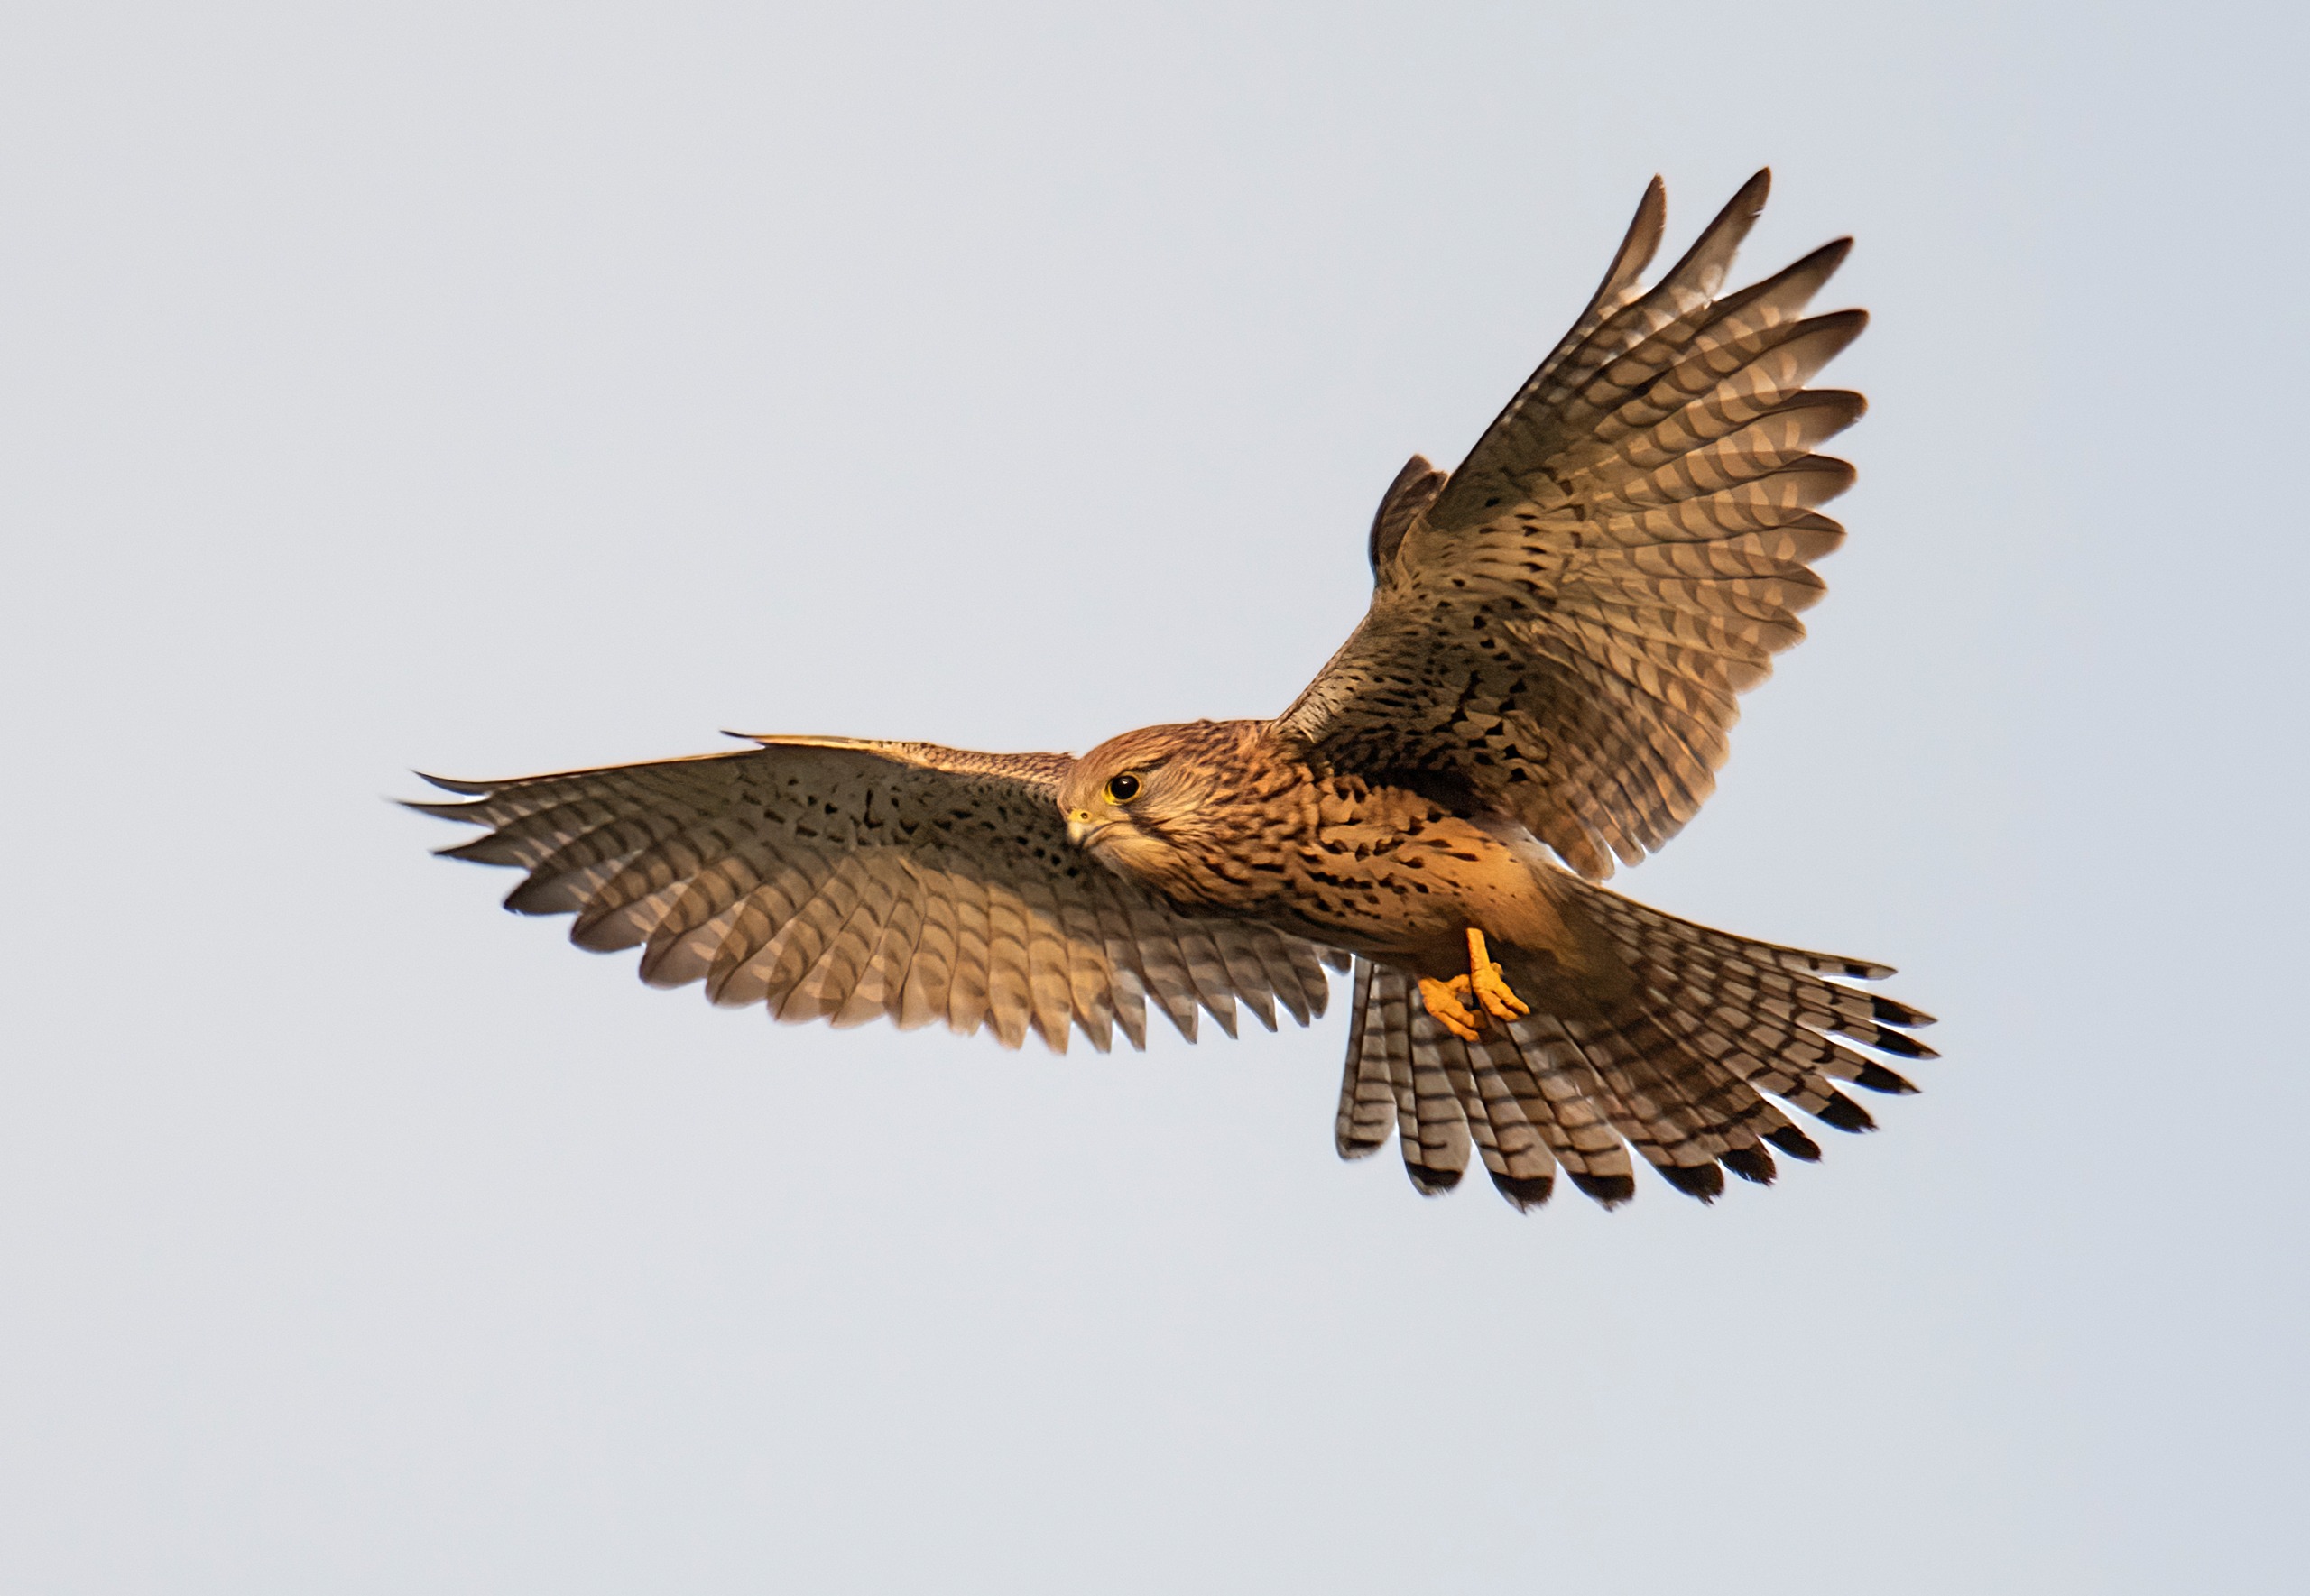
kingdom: Animalia
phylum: Chordata
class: Aves
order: Falconiformes
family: Falconidae
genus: Falco
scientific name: Falco tinnunculus
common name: Tårnfalk
